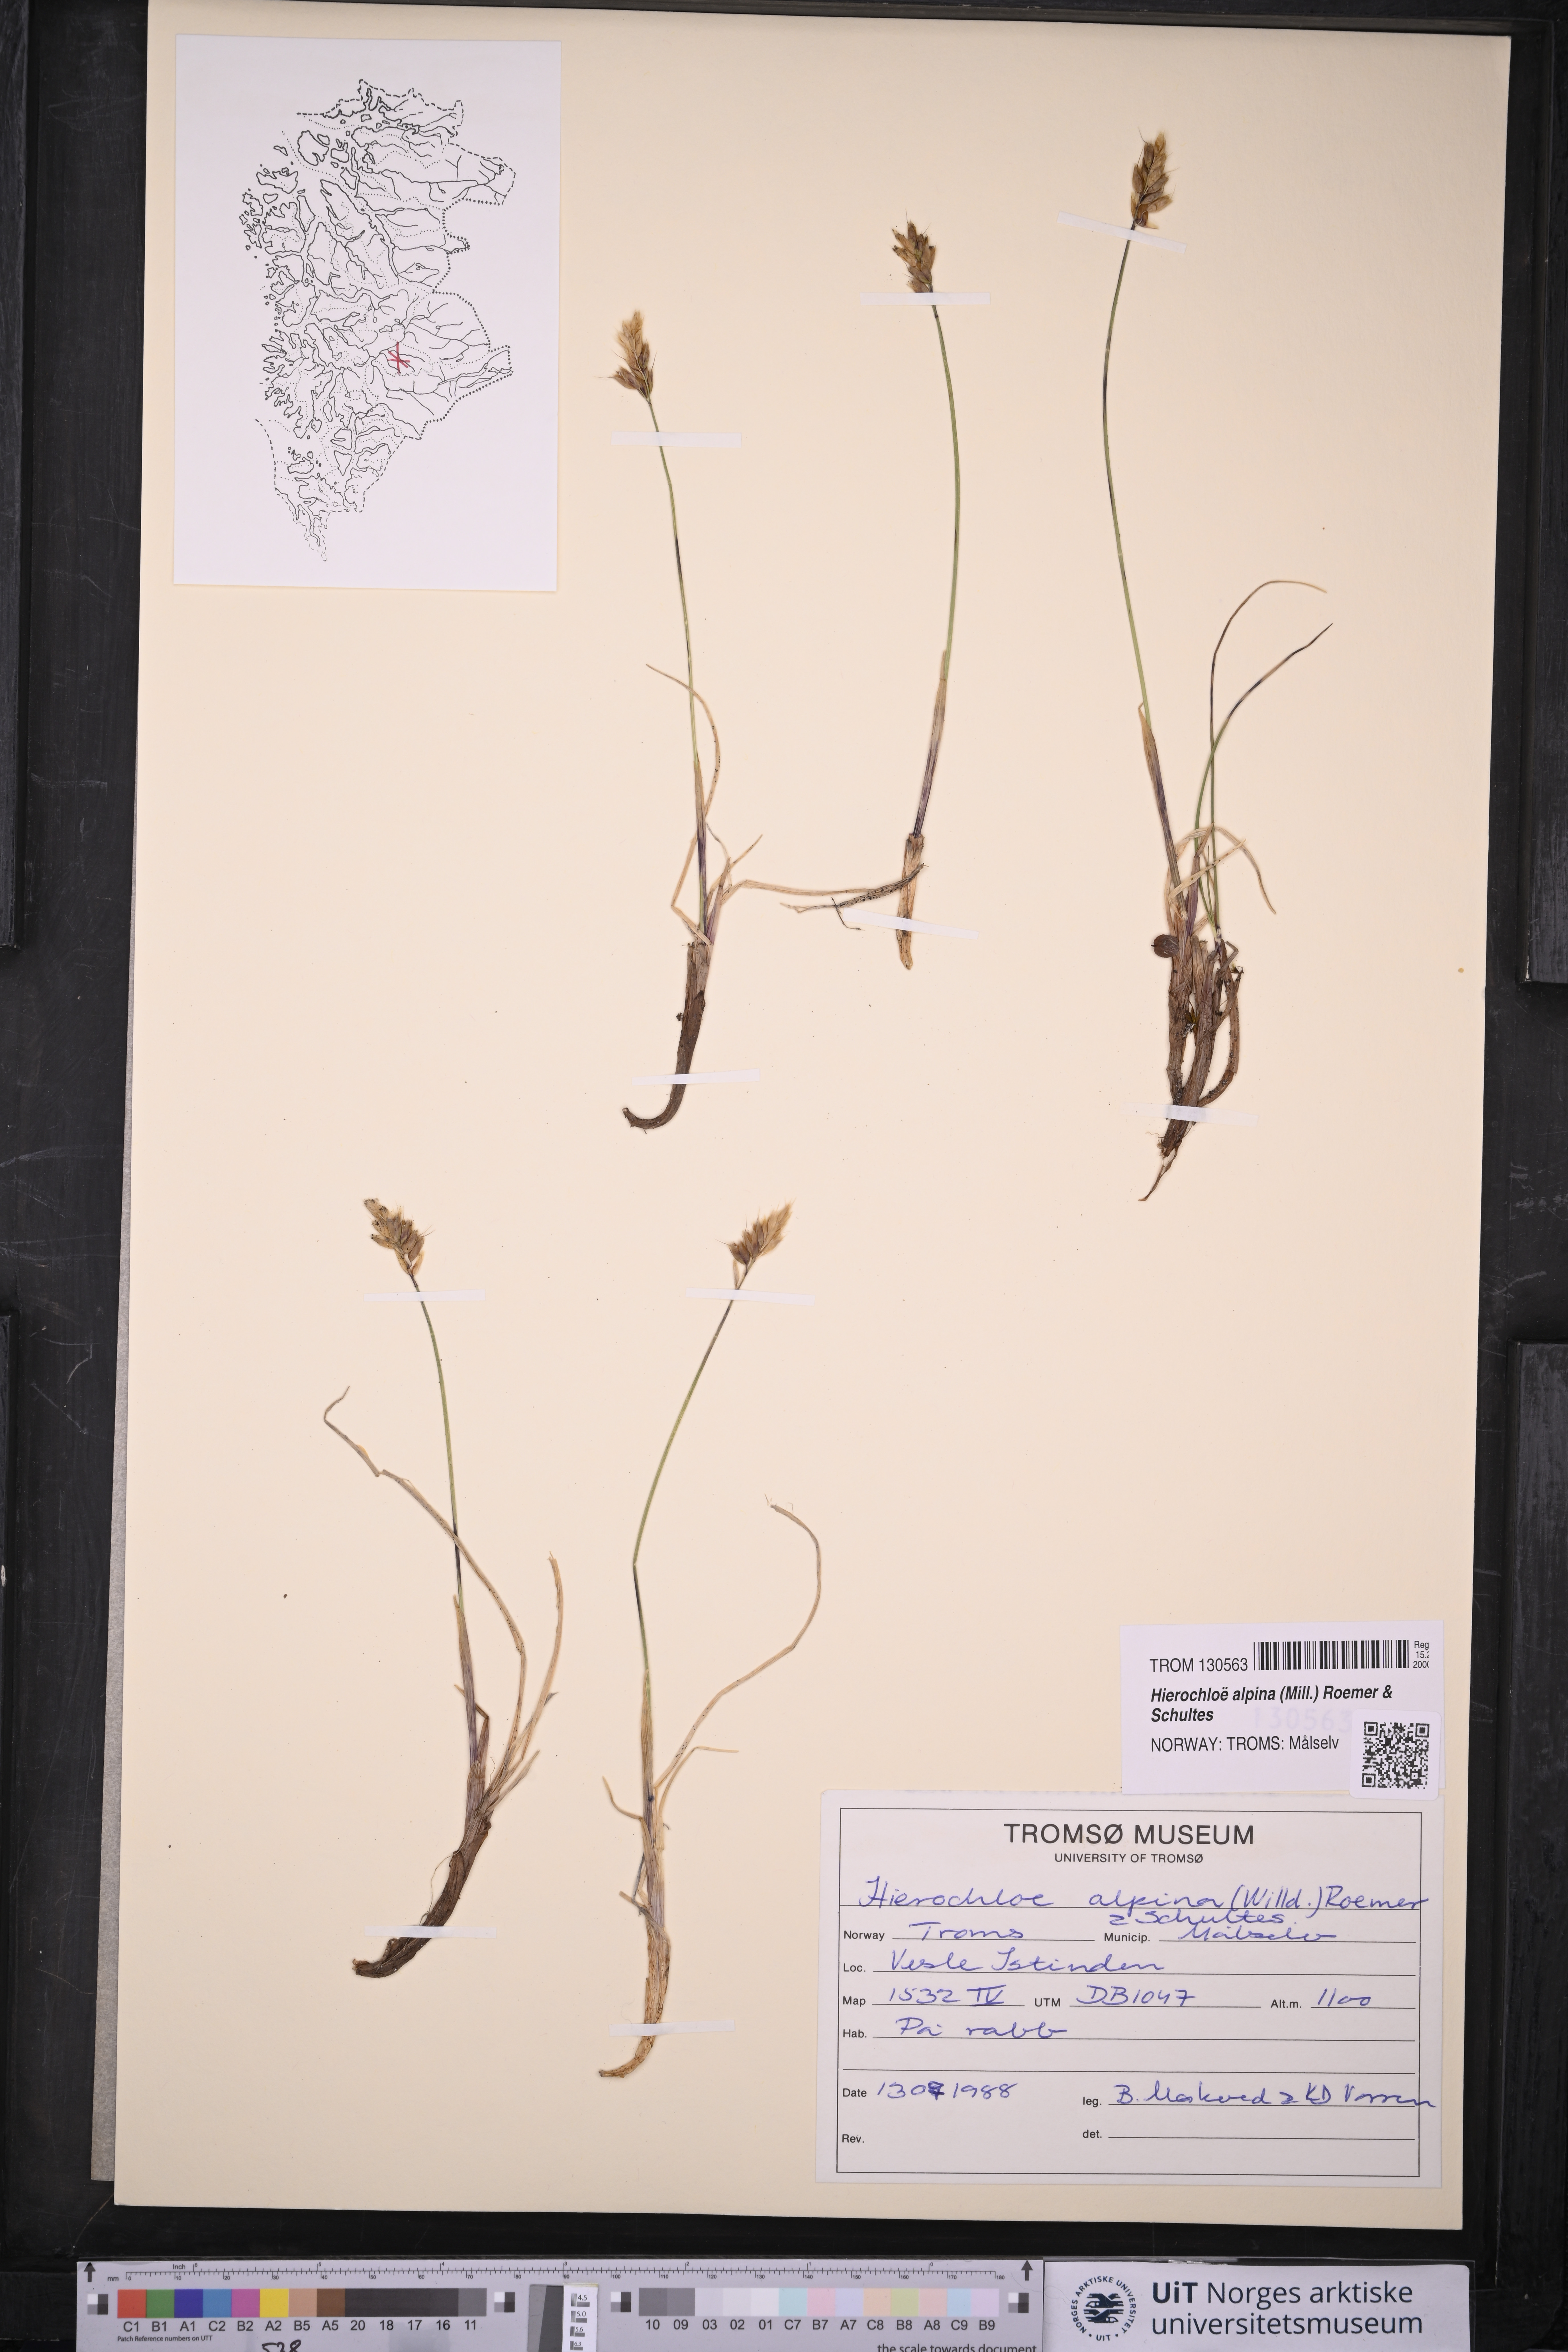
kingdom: Plantae
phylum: Tracheophyta
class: Liliopsida
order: Poales
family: Poaceae
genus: Anthoxanthum
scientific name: Anthoxanthum monticola
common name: Alpine sweetgrass
